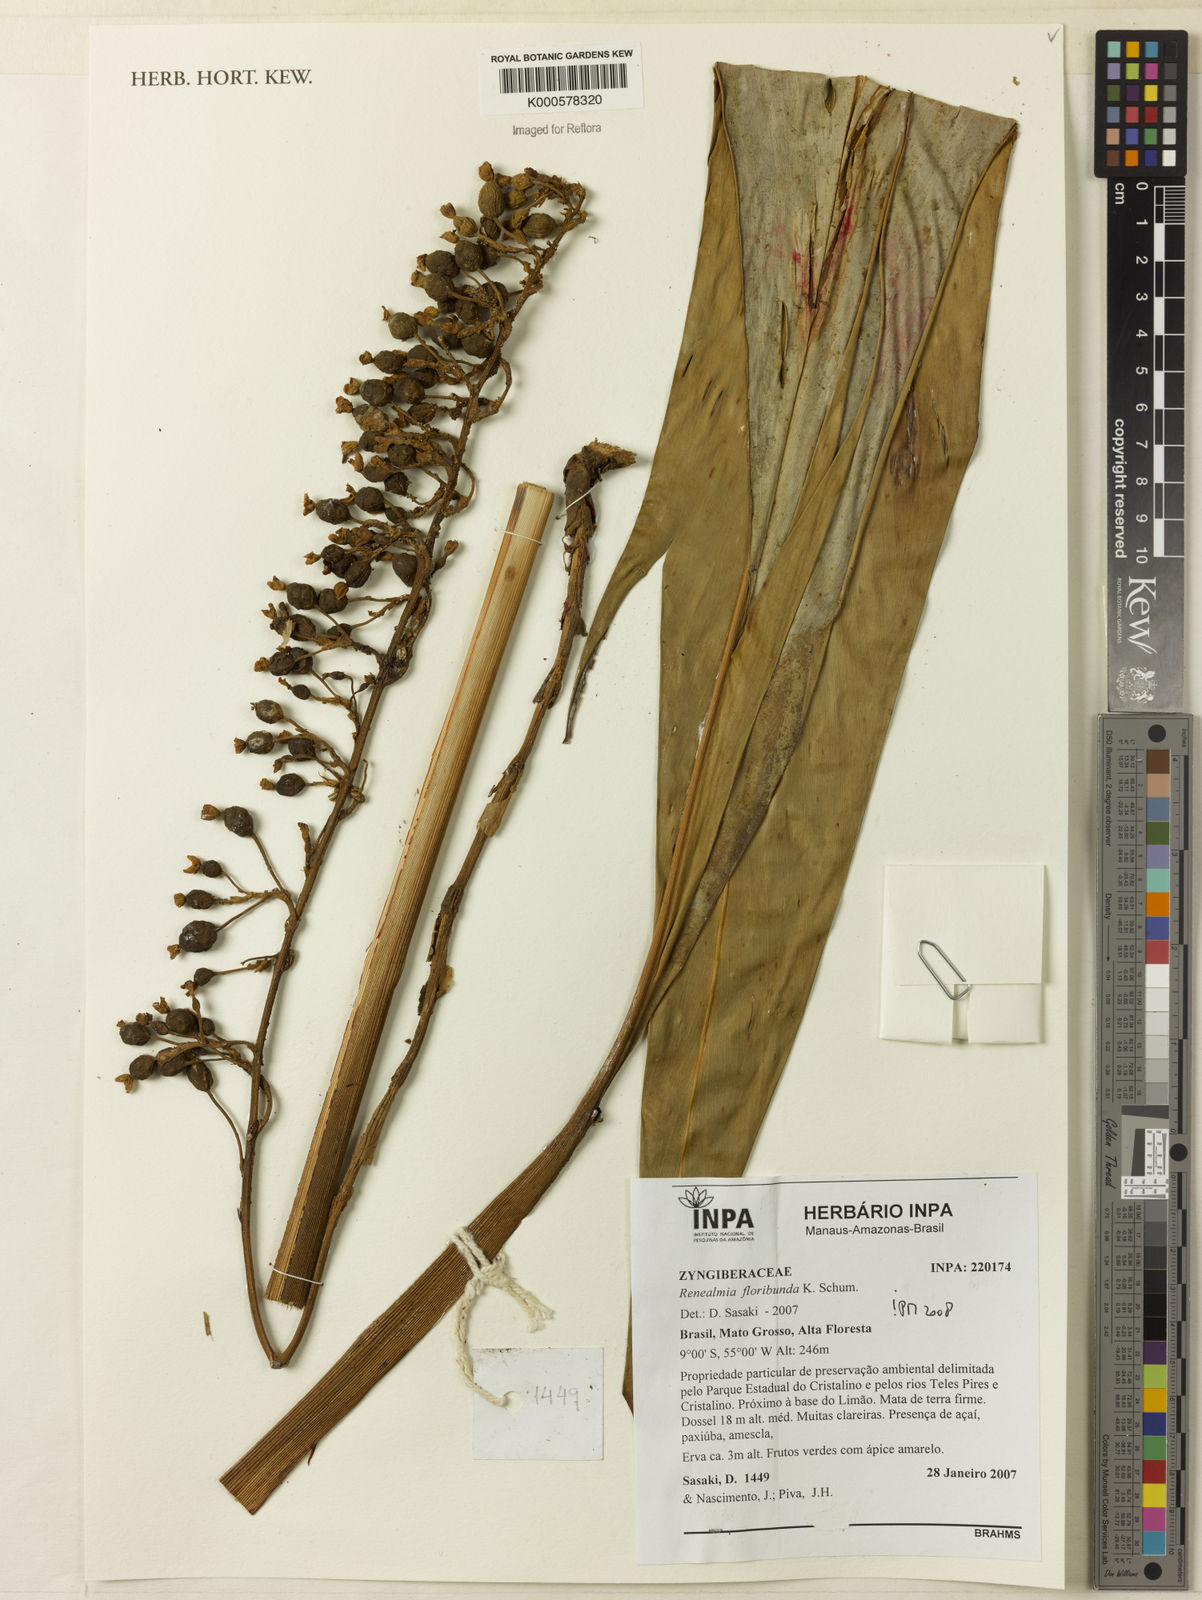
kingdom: Plantae
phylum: Tracheophyta
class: Liliopsida
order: Zingiberales
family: Zingiberaceae
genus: Renealmia
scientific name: Renealmia floribunda
